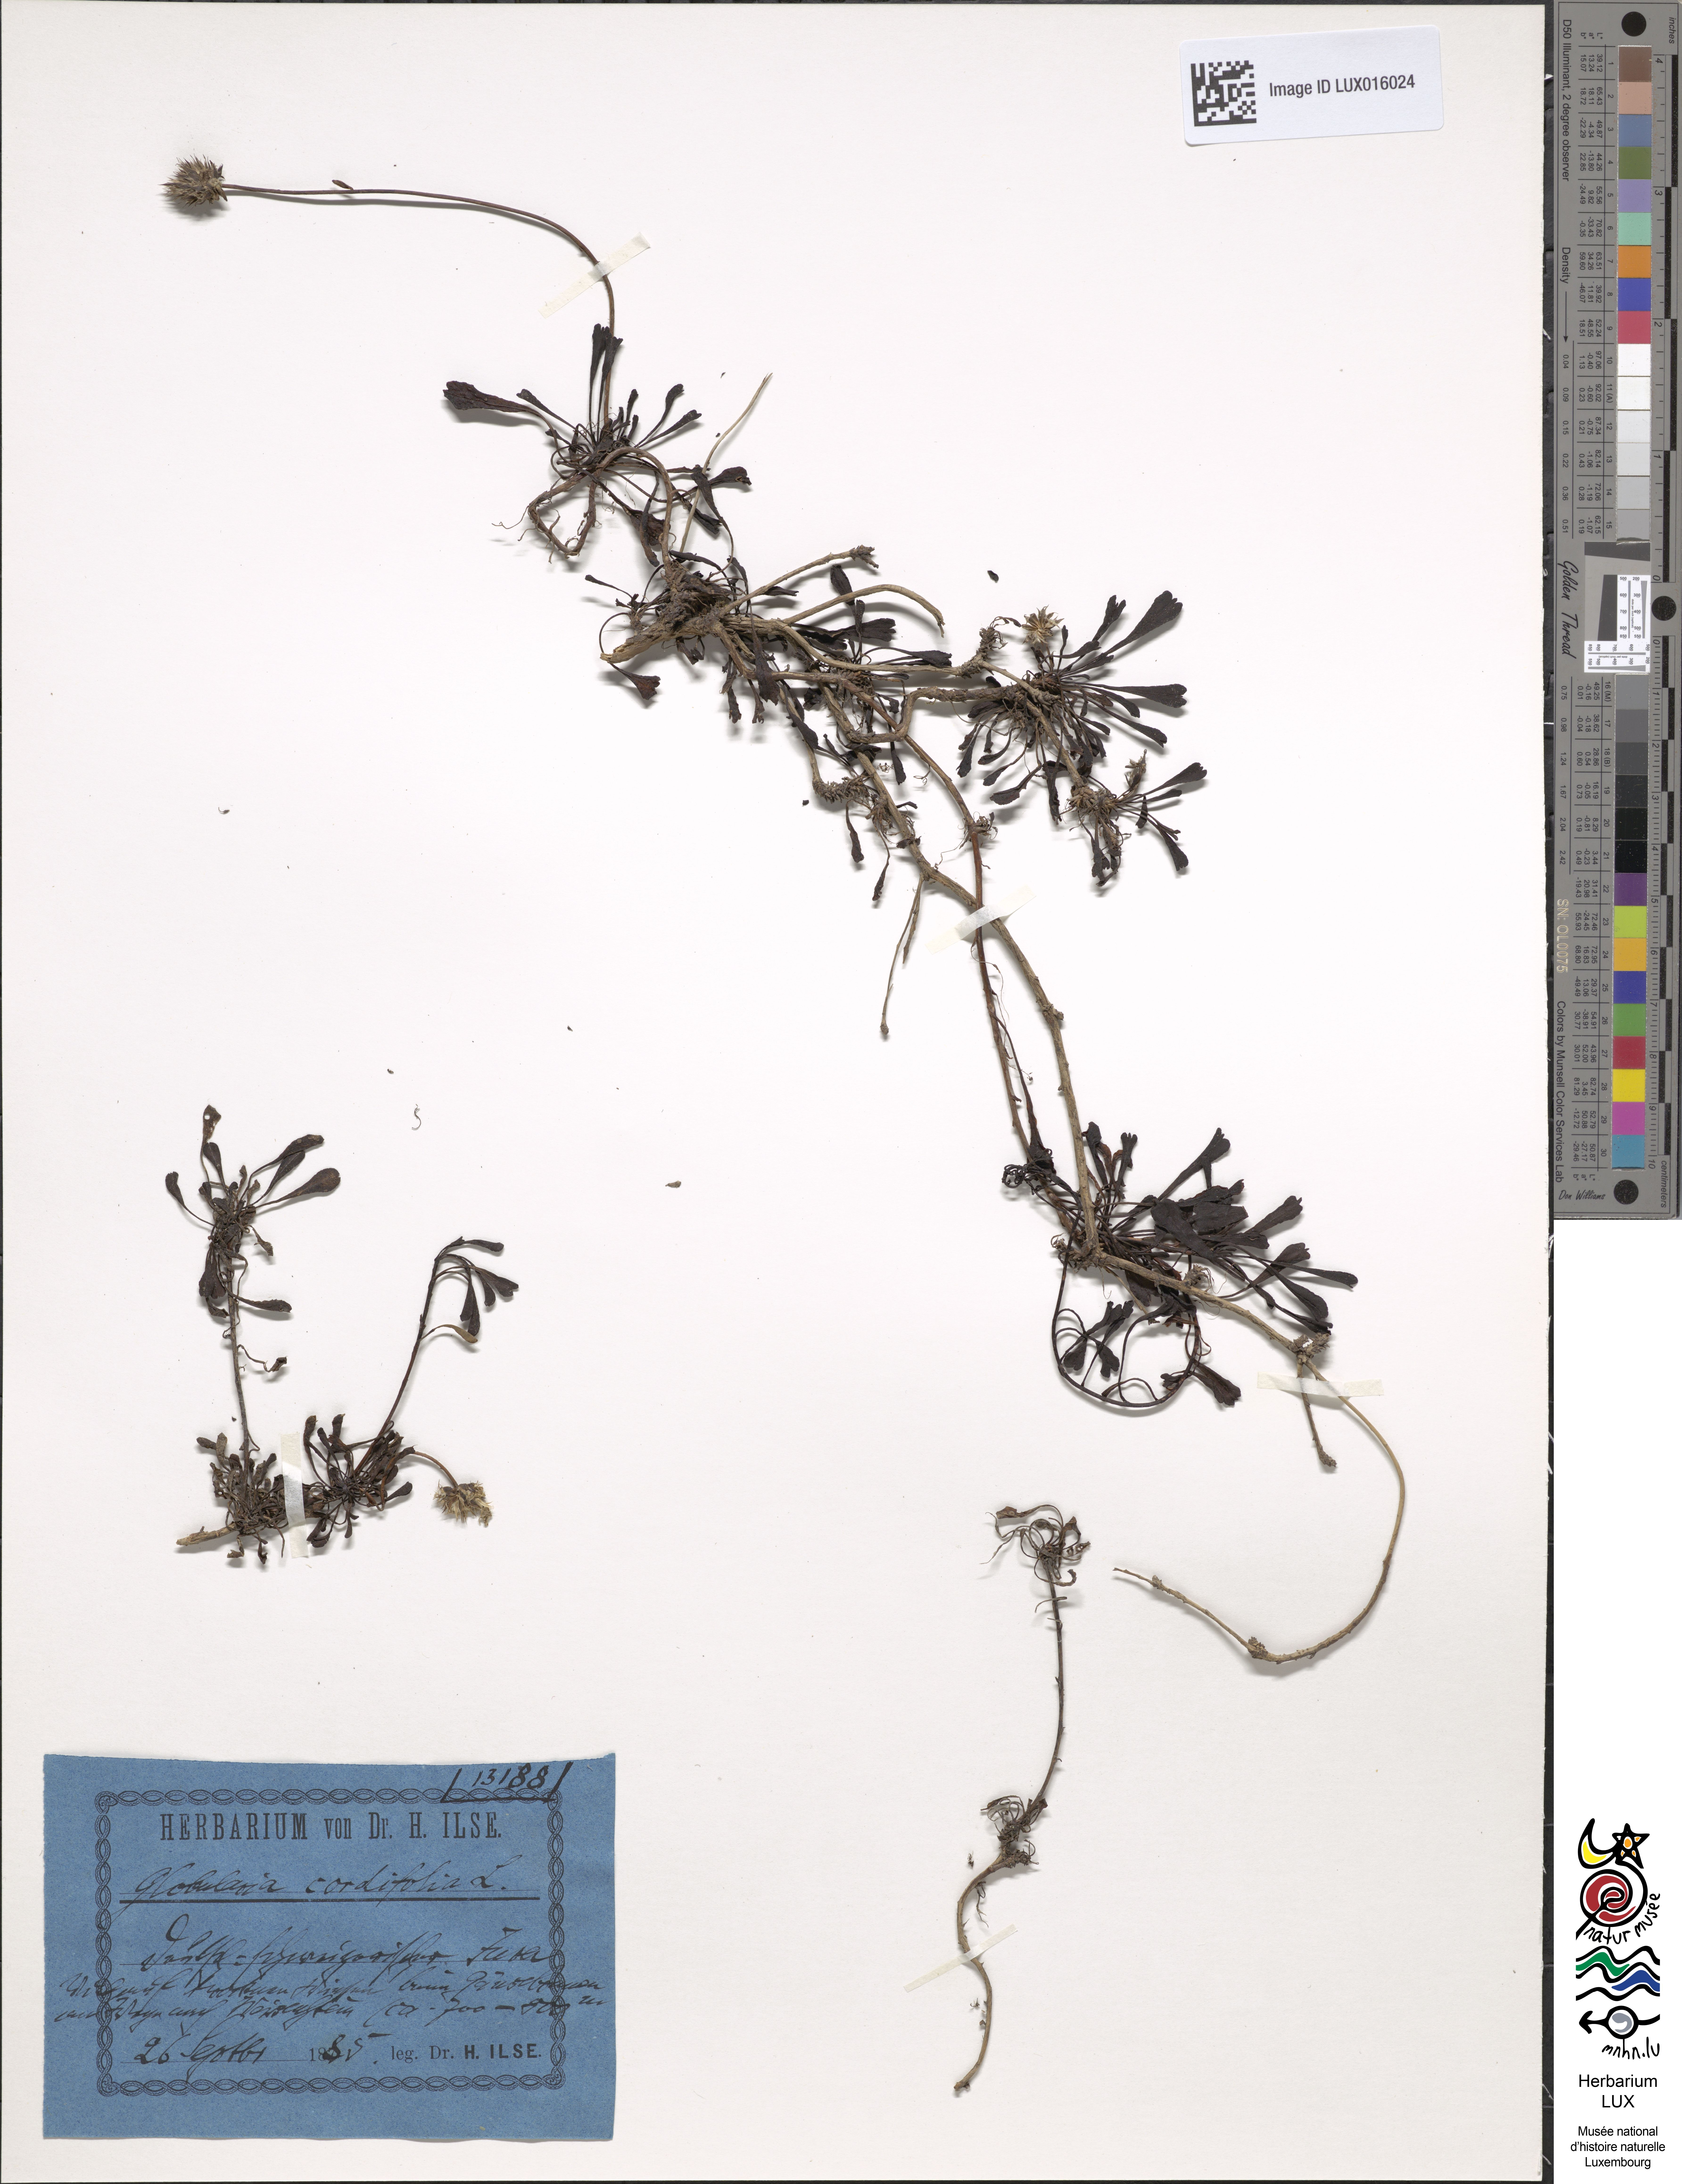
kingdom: Plantae
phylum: Tracheophyta
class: Magnoliopsida
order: Lamiales
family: Plantaginaceae
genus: Globularia
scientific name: Globularia cordifolia
